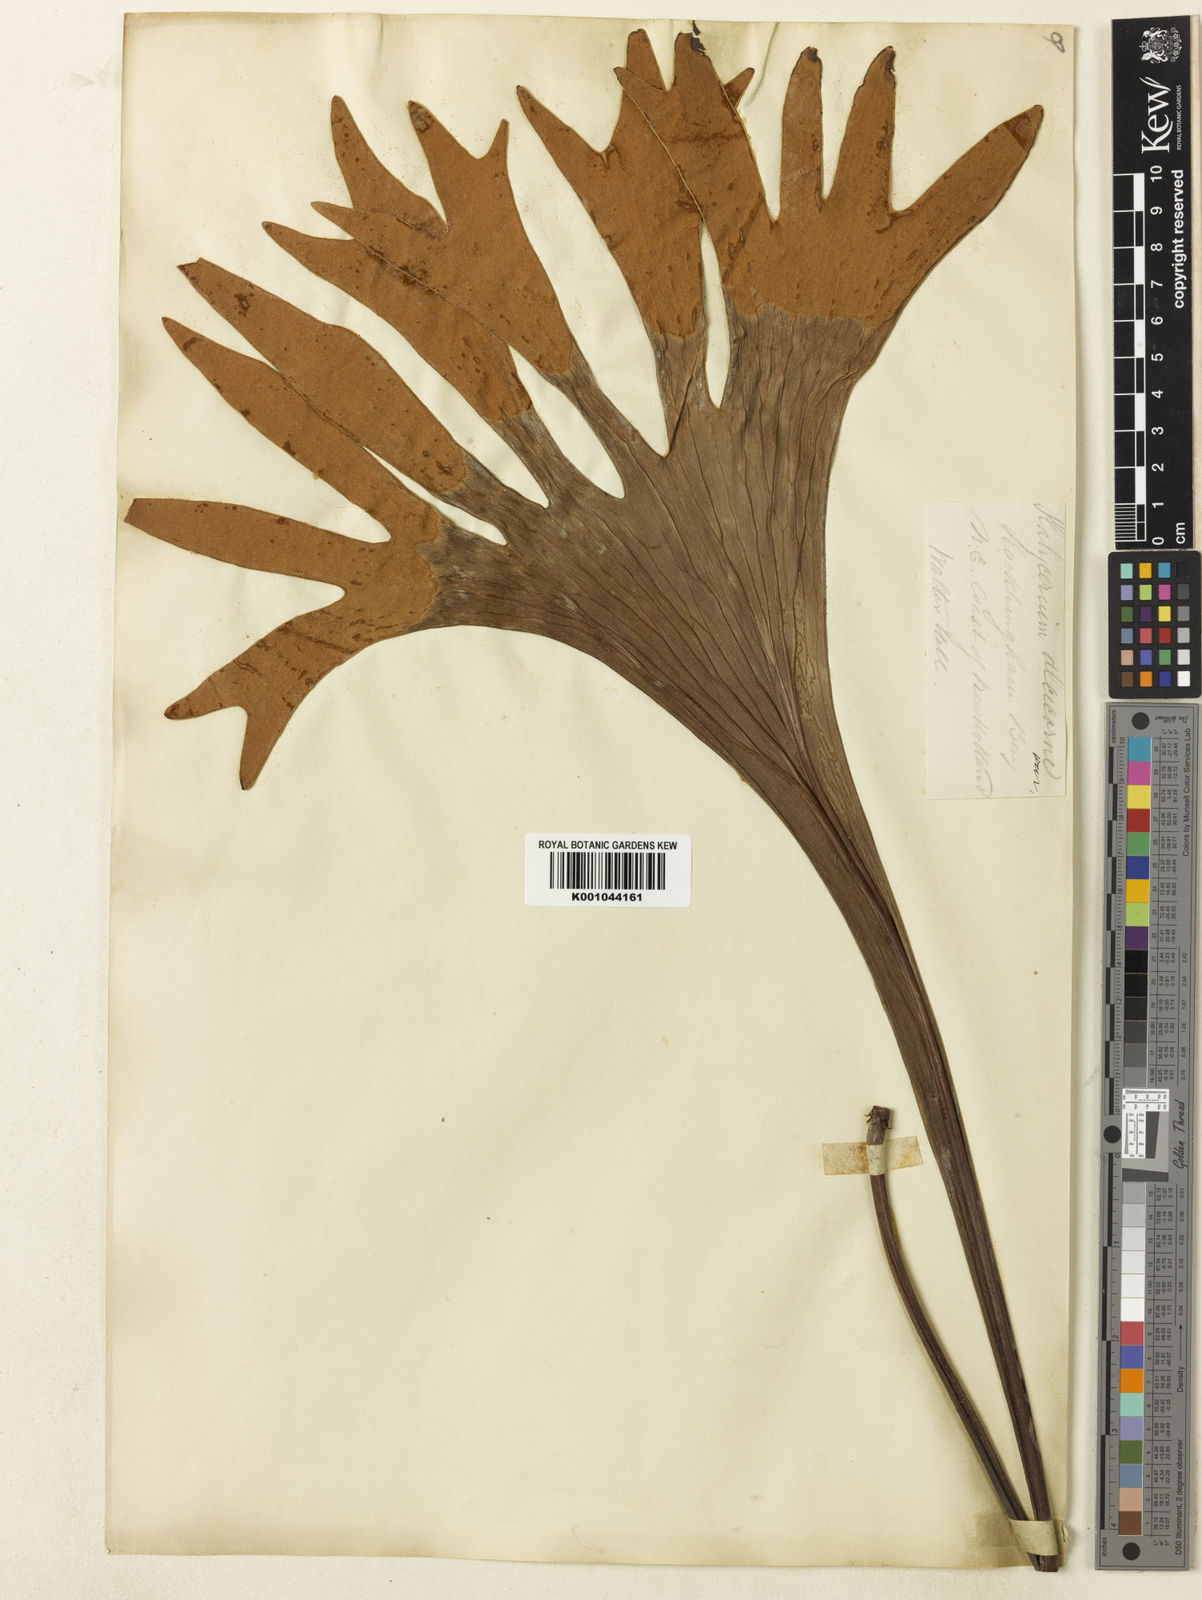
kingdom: Plantae
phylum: Tracheophyta
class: Polypodiopsida
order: Polypodiales
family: Polypodiaceae
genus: Platycerium
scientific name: Platycerium hillii
